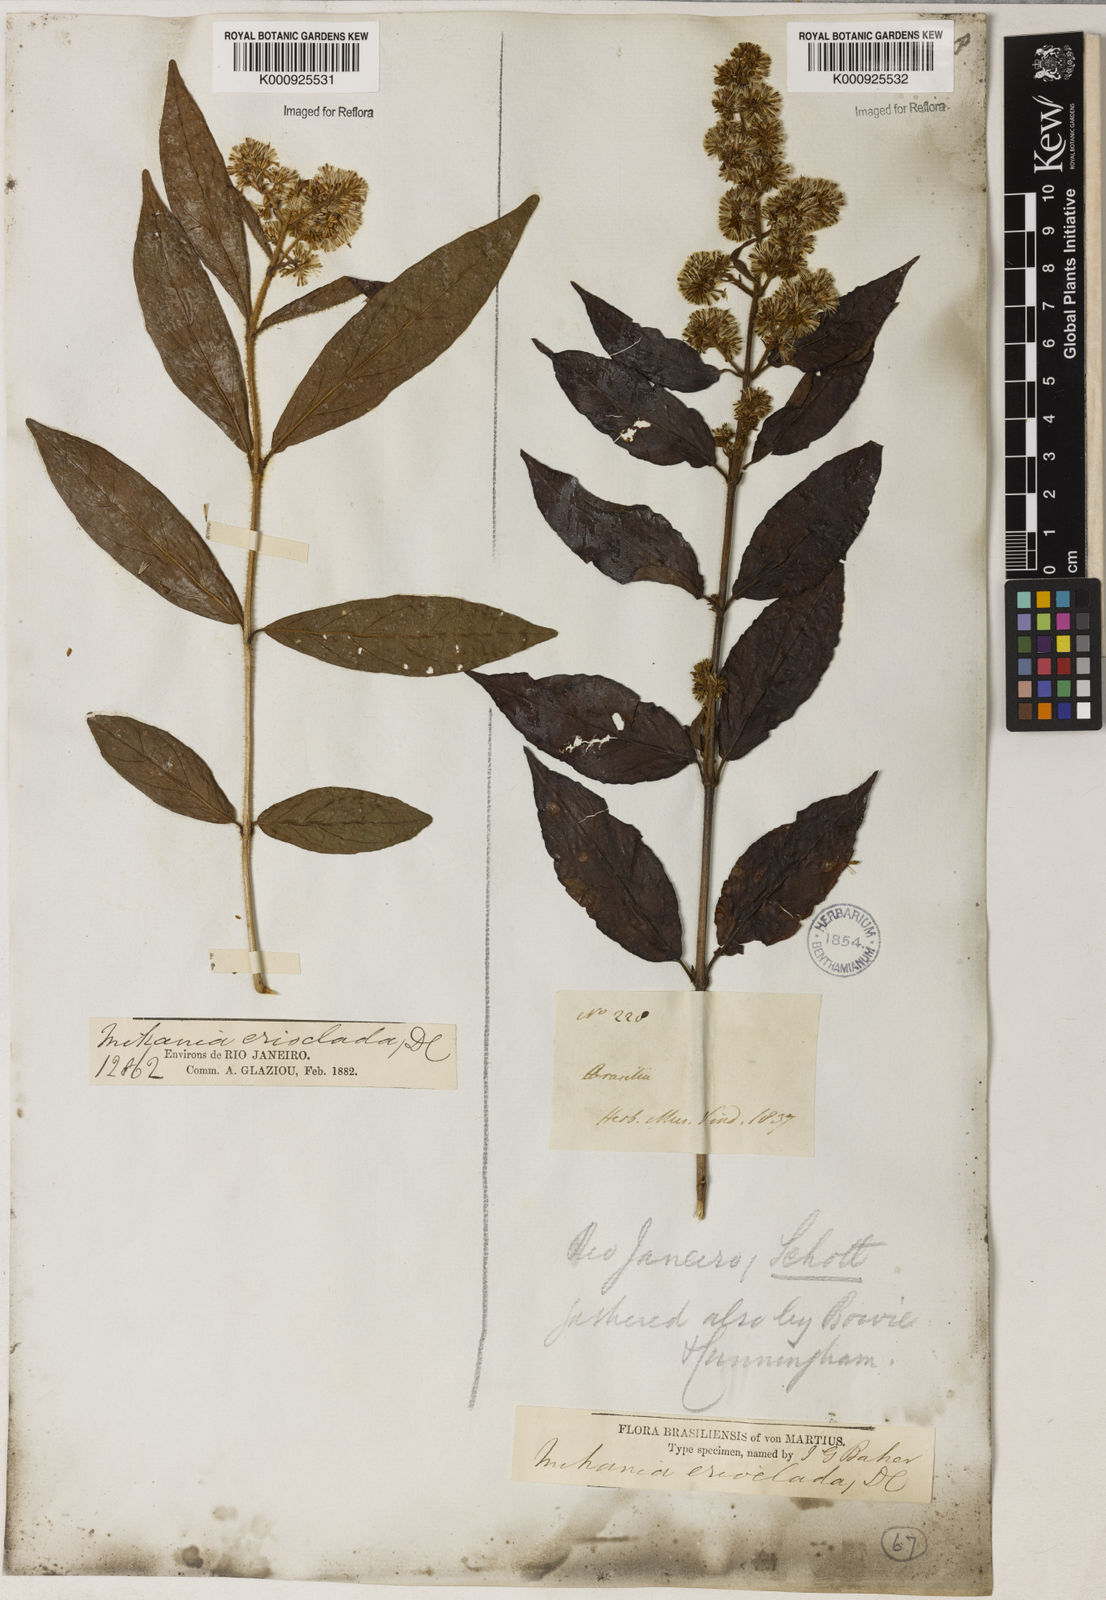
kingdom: Plantae
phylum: Tracheophyta
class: Magnoliopsida
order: Asterales
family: Asteraceae
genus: Mikania
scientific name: Mikania erioclada
